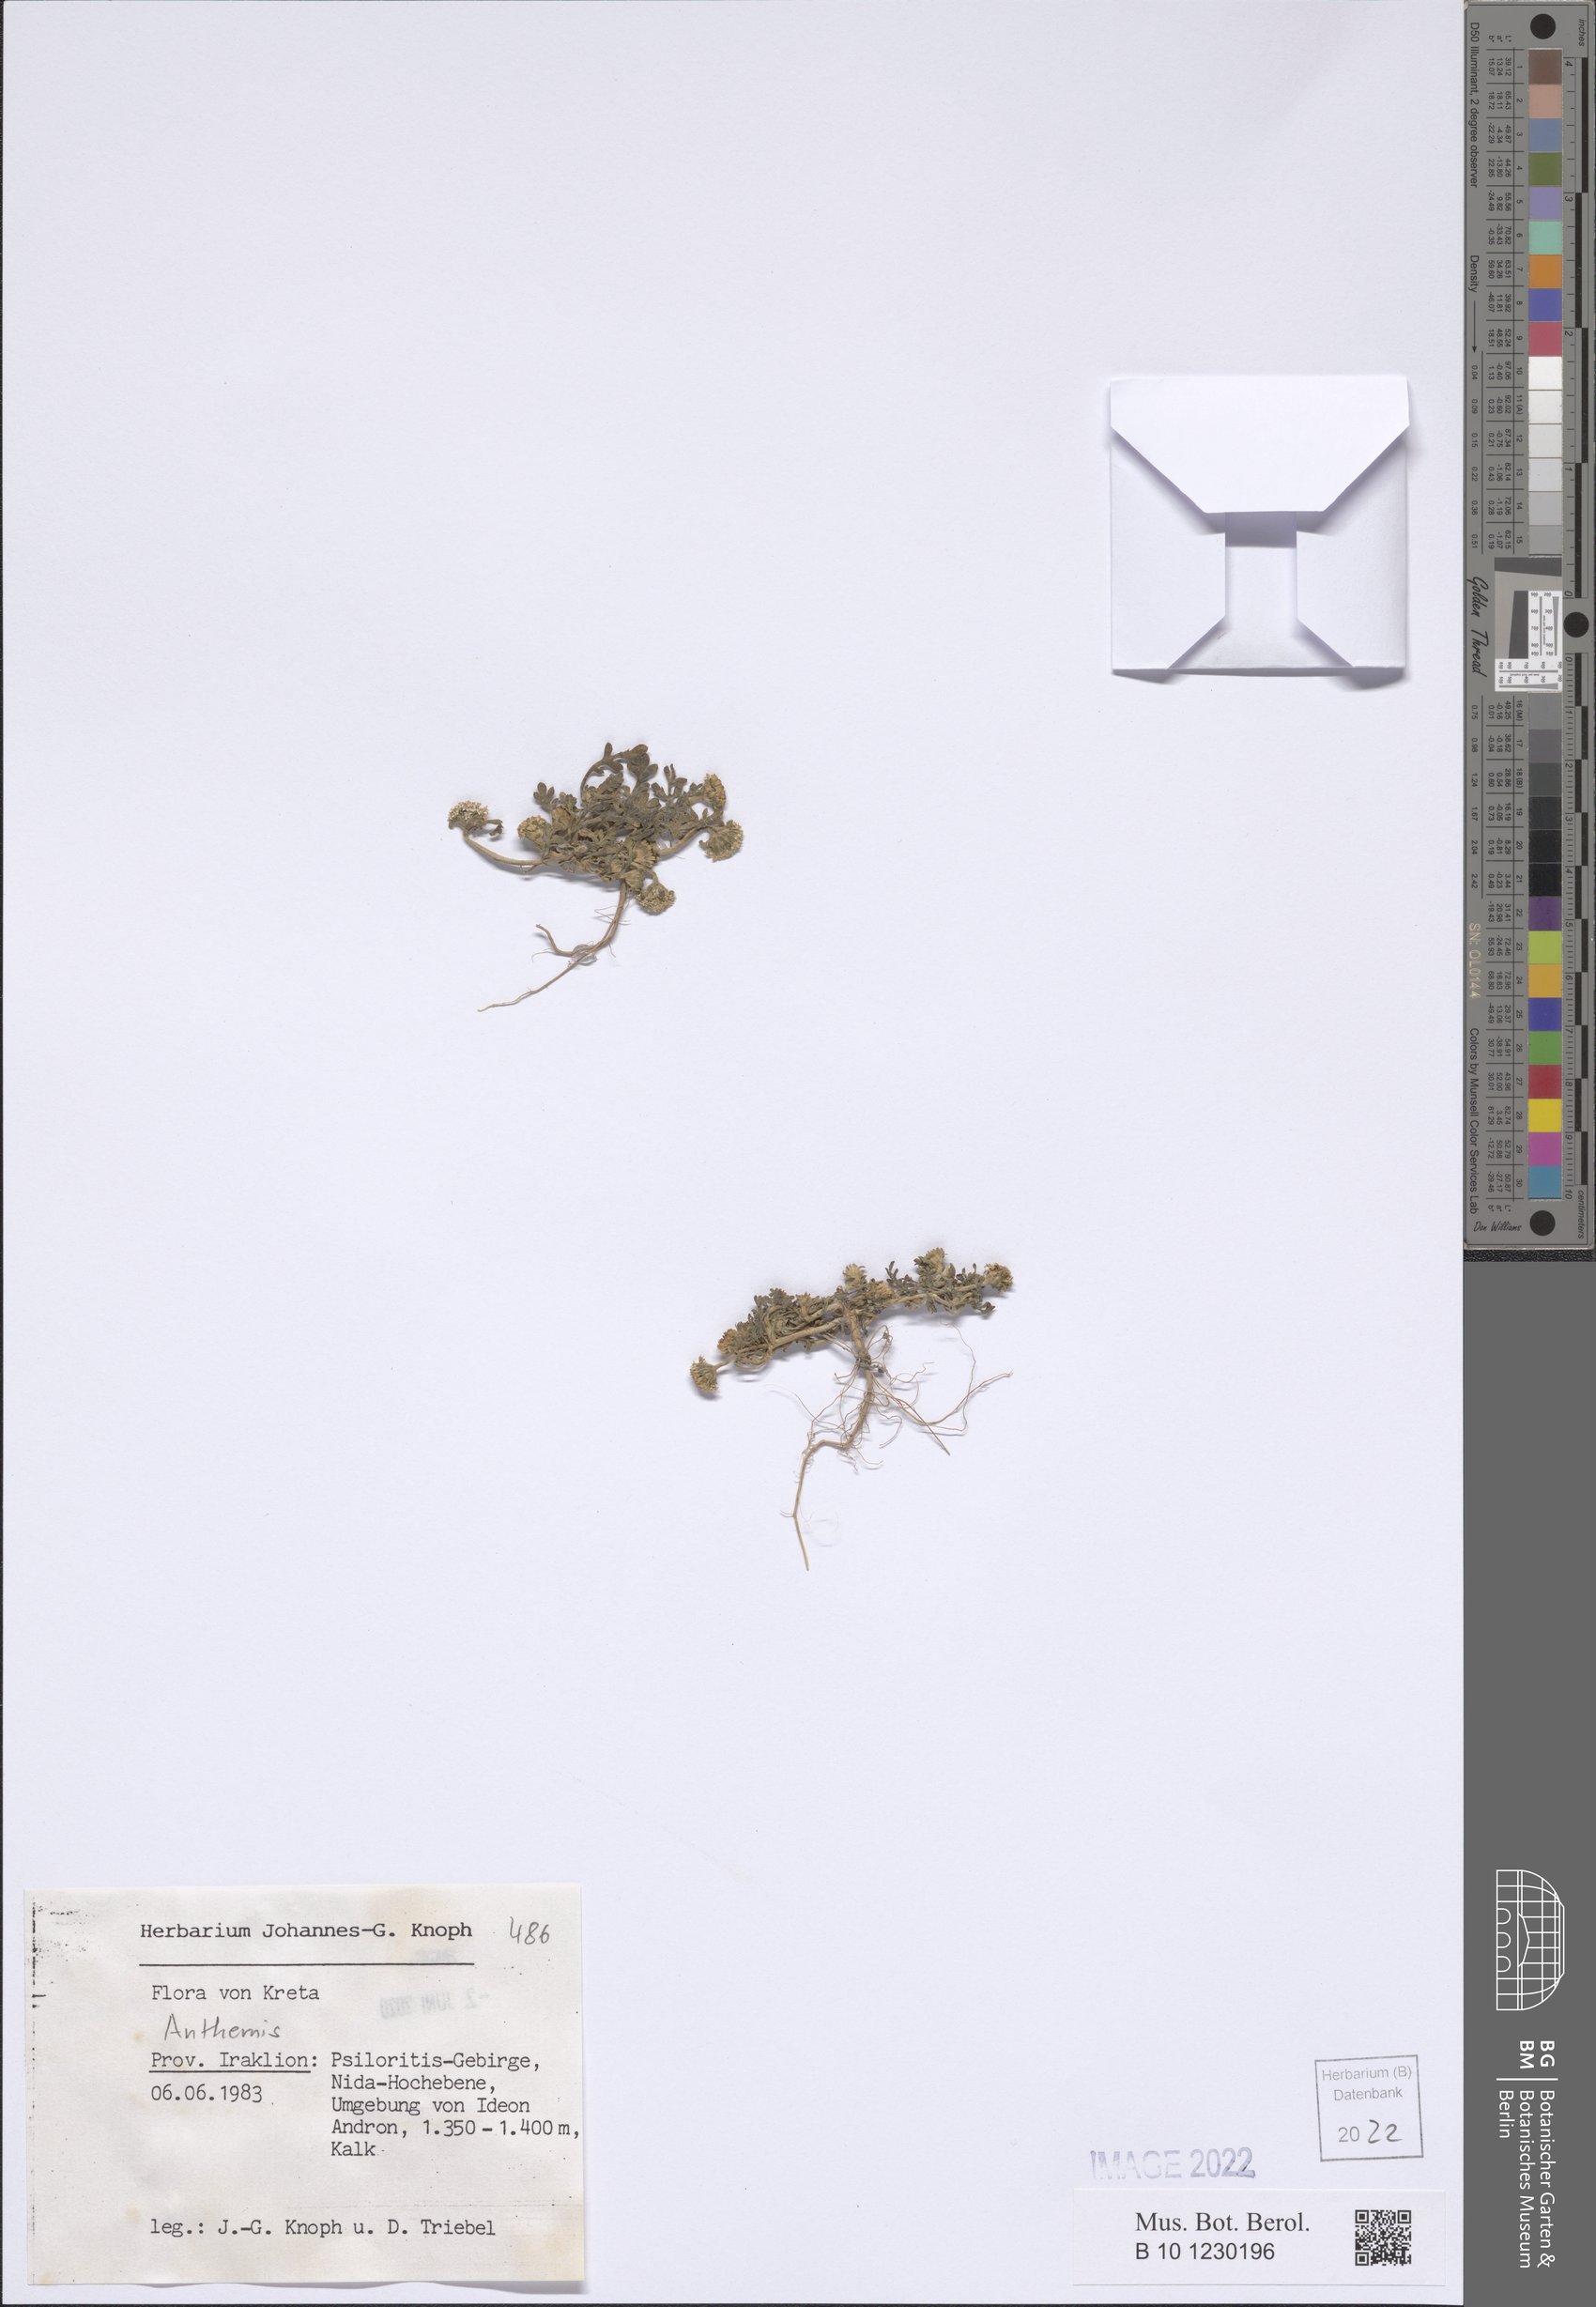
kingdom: Plantae
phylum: Tracheophyta
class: Magnoliopsida
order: Asterales
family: Asteraceae
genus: Anthemis
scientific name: Anthemis
